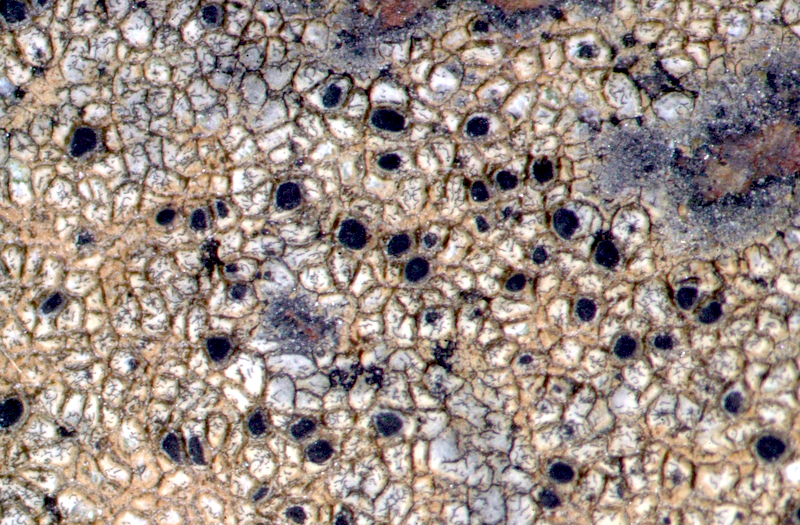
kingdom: Fungi
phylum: Ascomycota
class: Lecanoromycetes
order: Teloschistales
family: Teloschistaceae
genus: Caloplaca
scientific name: Caloplaca rubelliana
